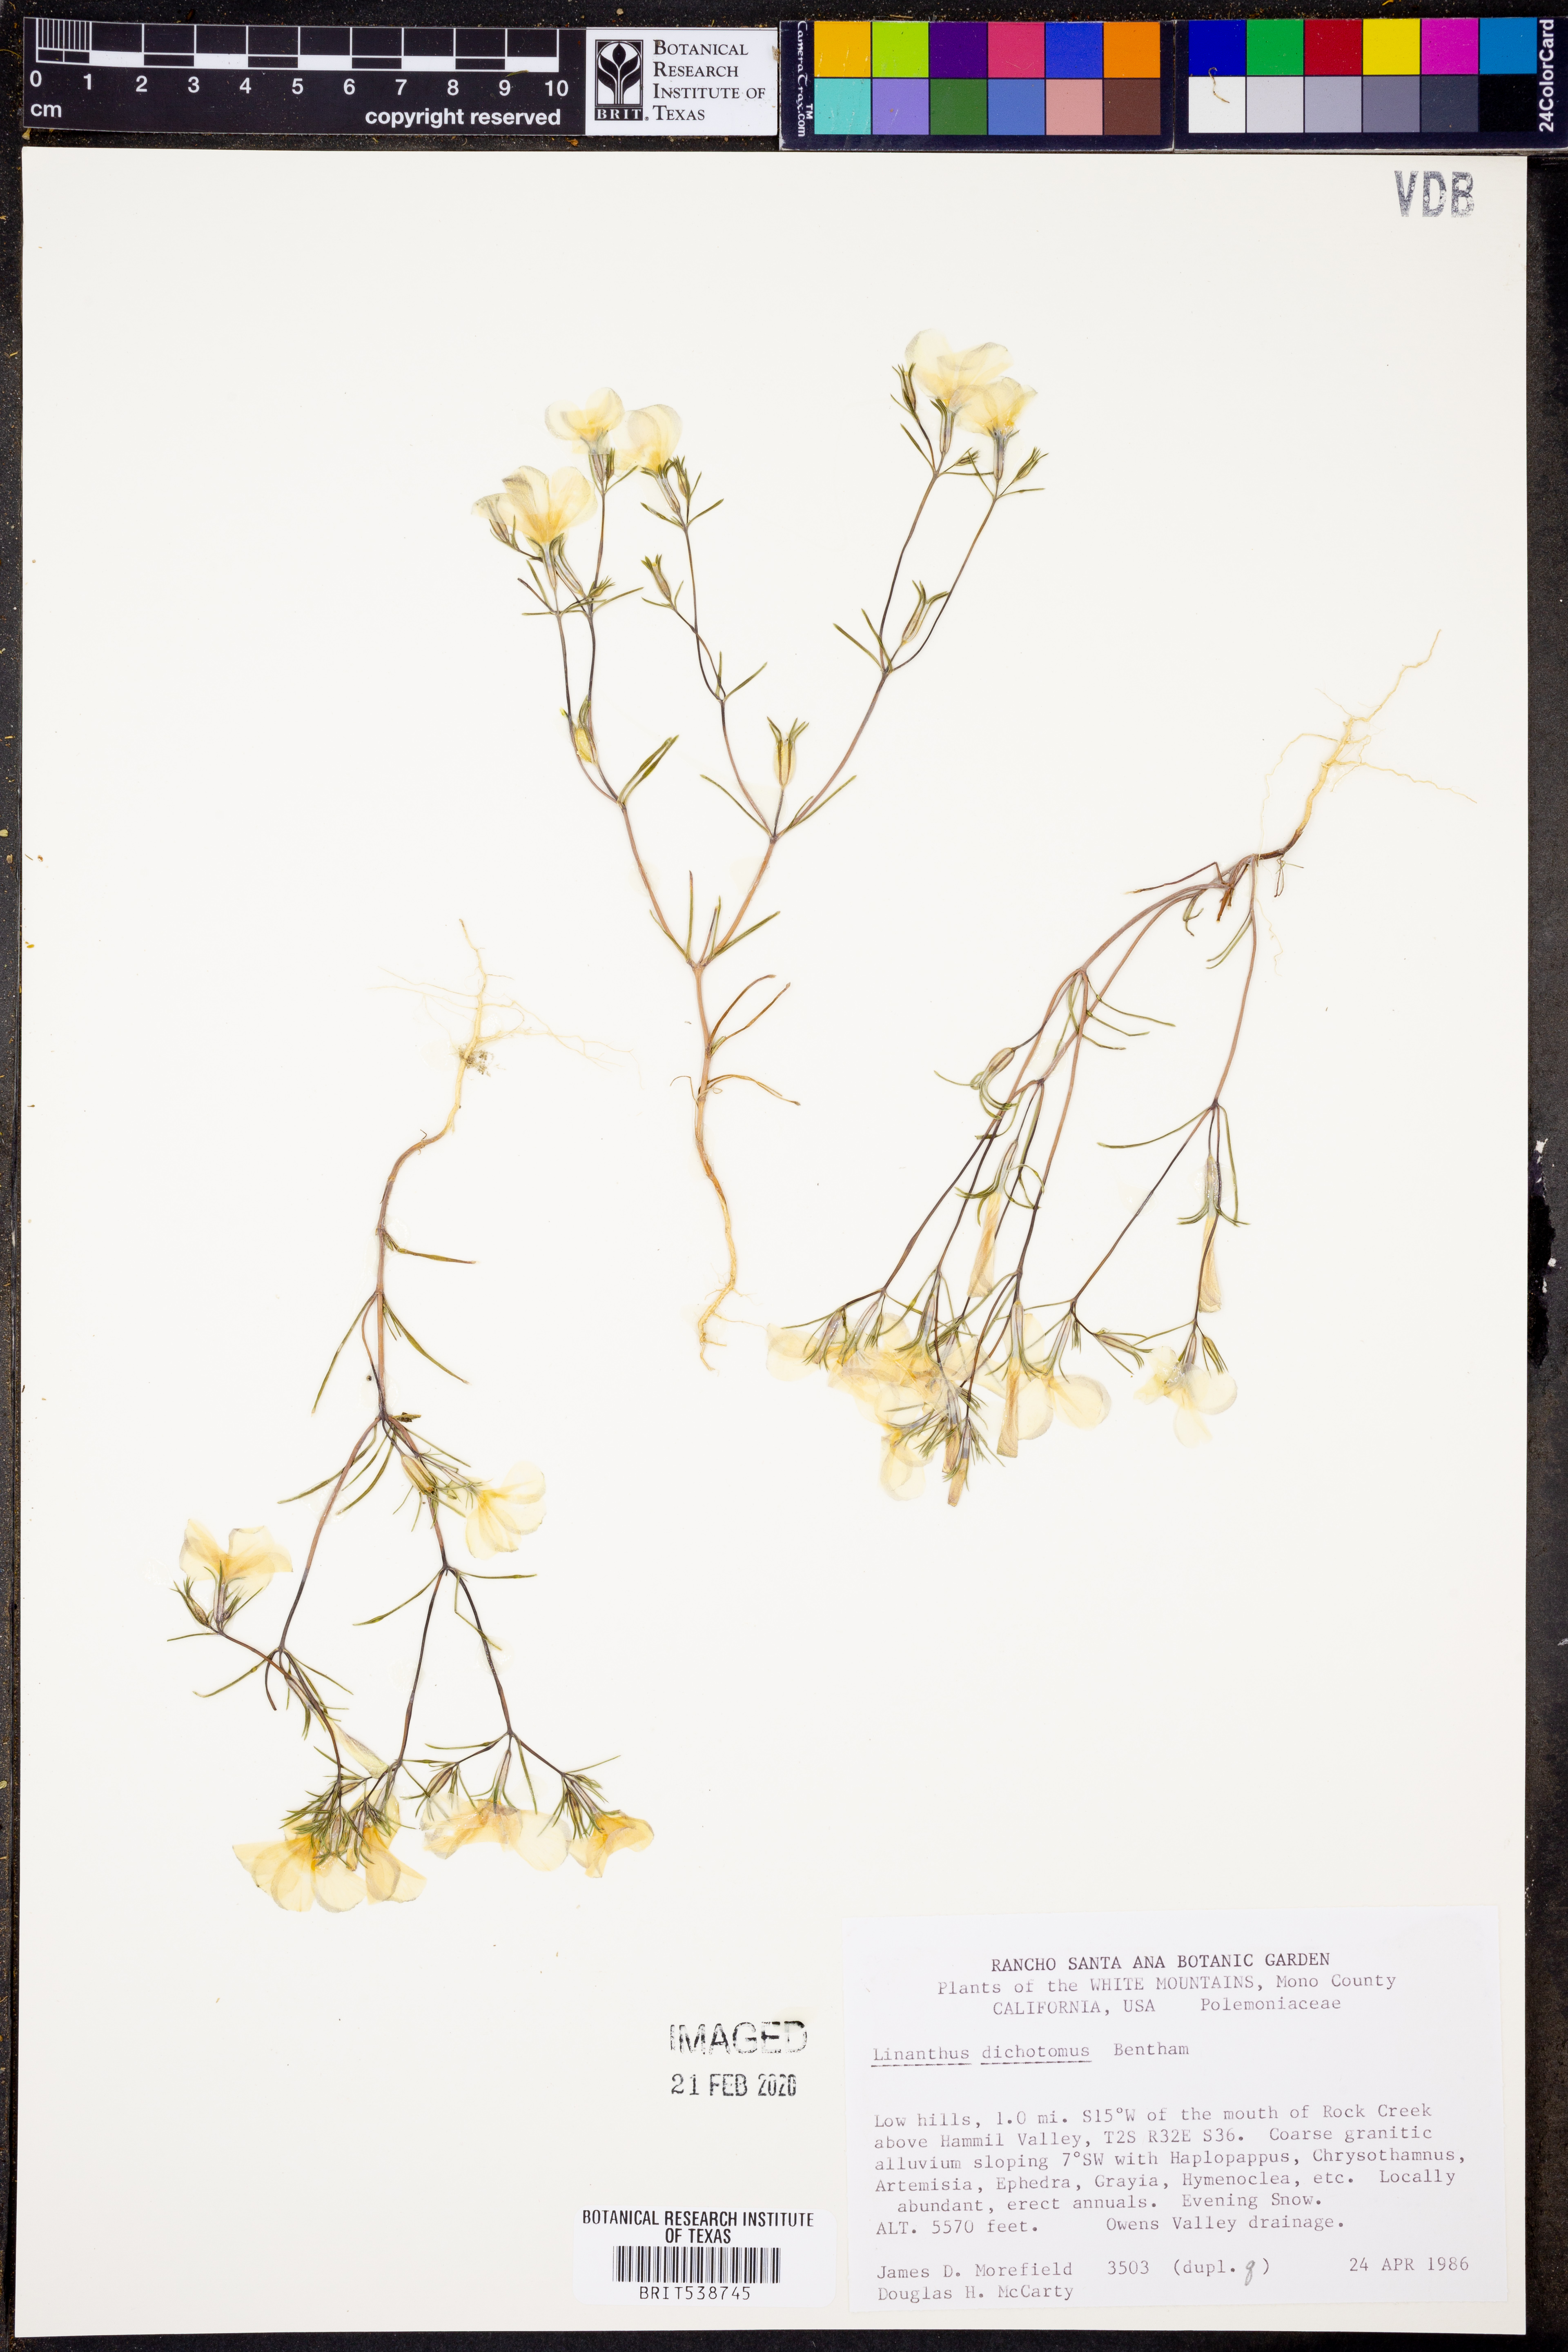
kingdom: Plantae
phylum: Tracheophyta
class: Magnoliopsida
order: Ericales
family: Polemoniaceae
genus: Linanthus
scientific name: Linanthus dichotomus
